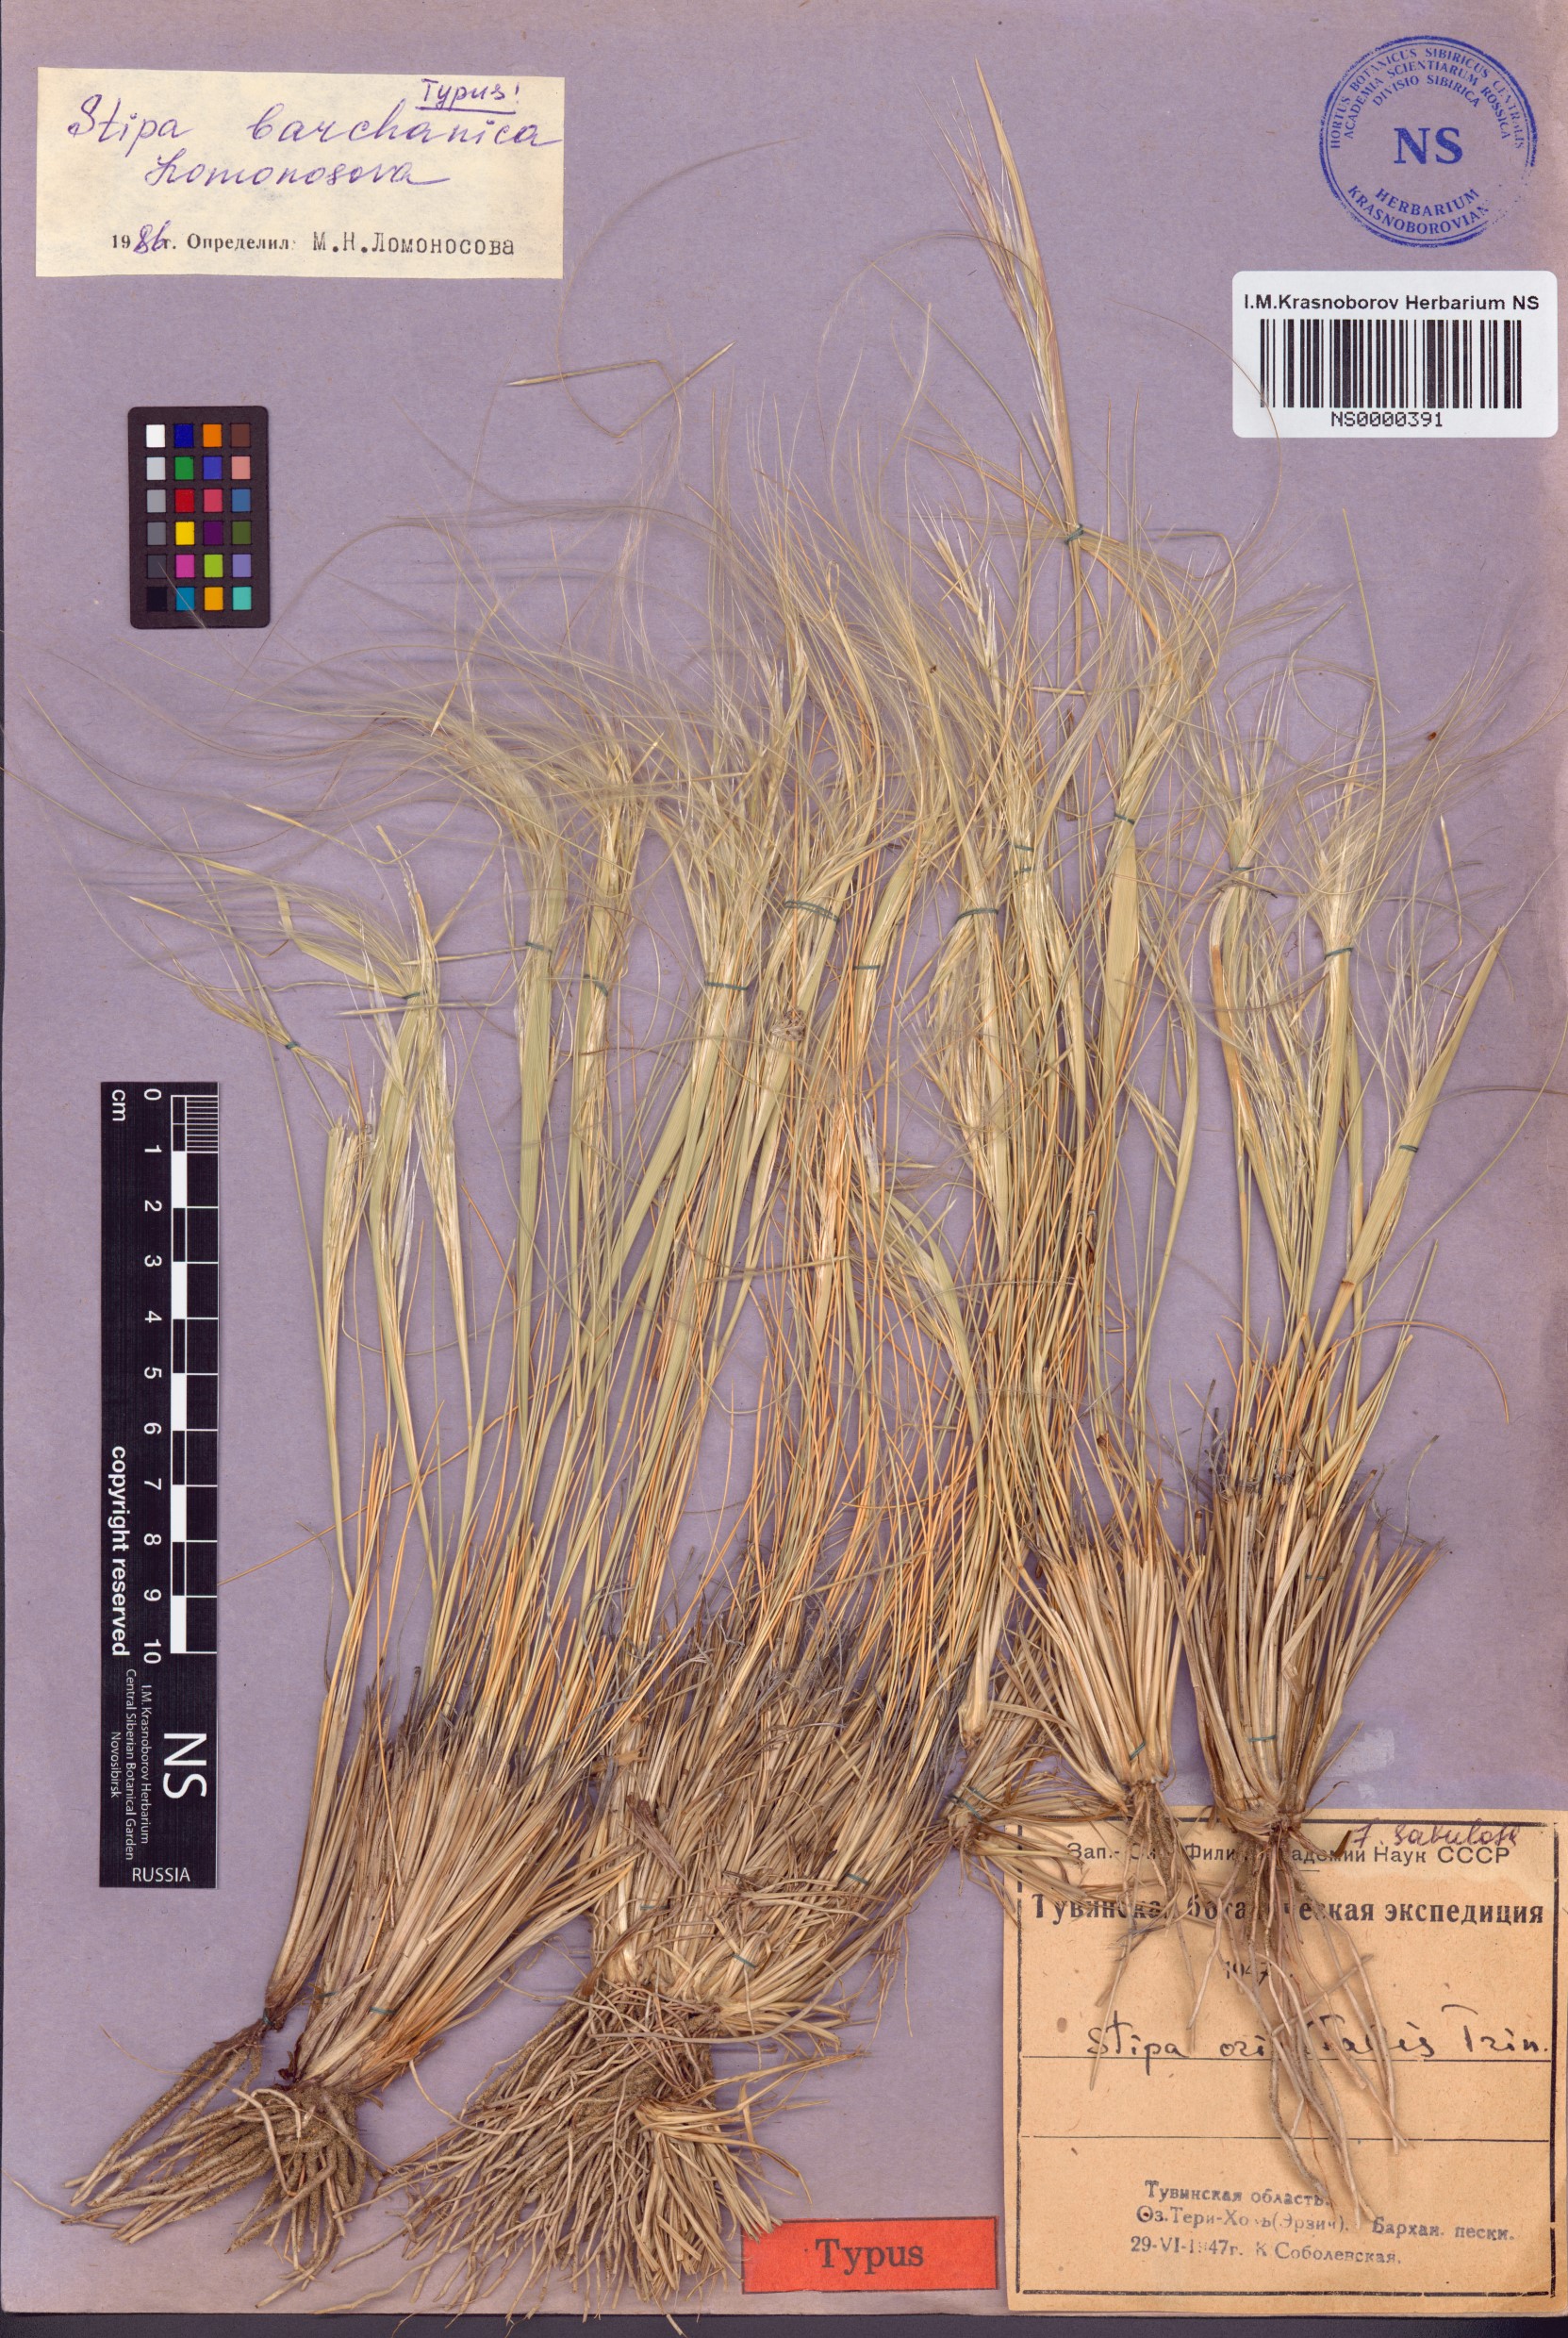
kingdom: Plantae
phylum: Tracheophyta
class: Liliopsida
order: Poales
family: Poaceae
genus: Stipa
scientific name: Stipa caucasica
